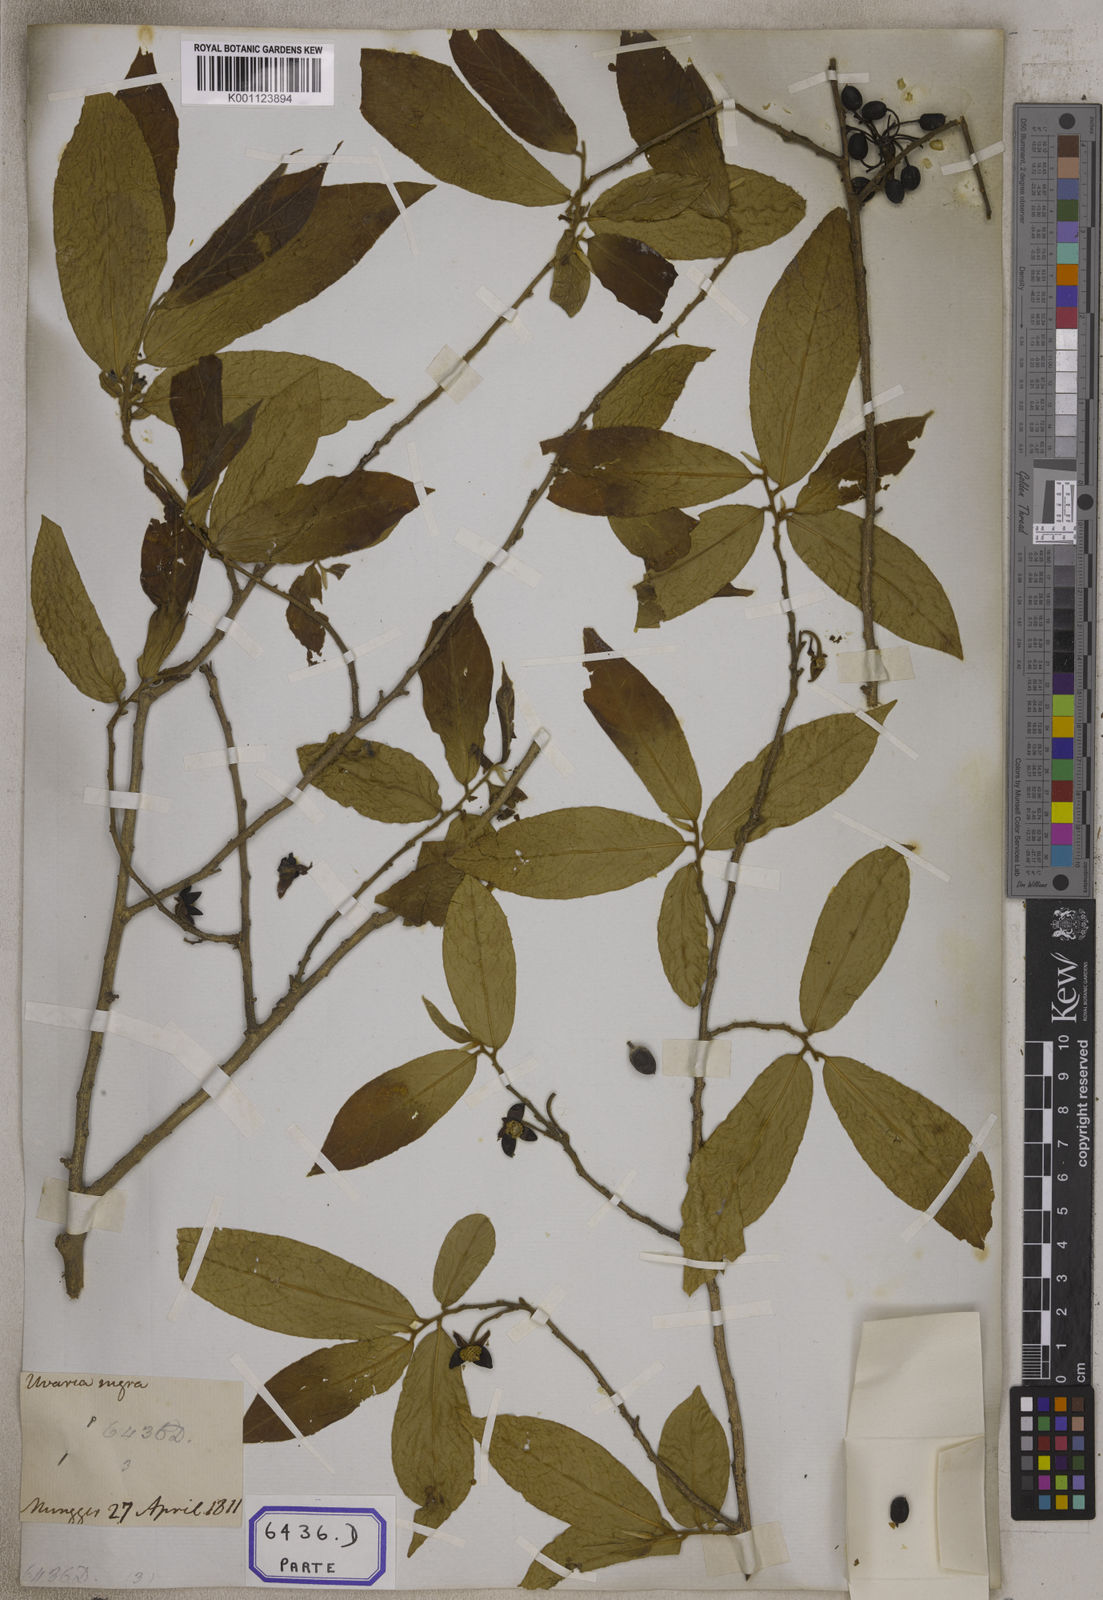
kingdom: Plantae
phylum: Tracheophyta
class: Magnoliopsida
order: Magnoliales
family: Annonaceae
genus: Hubera
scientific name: Hubera cerasoides
